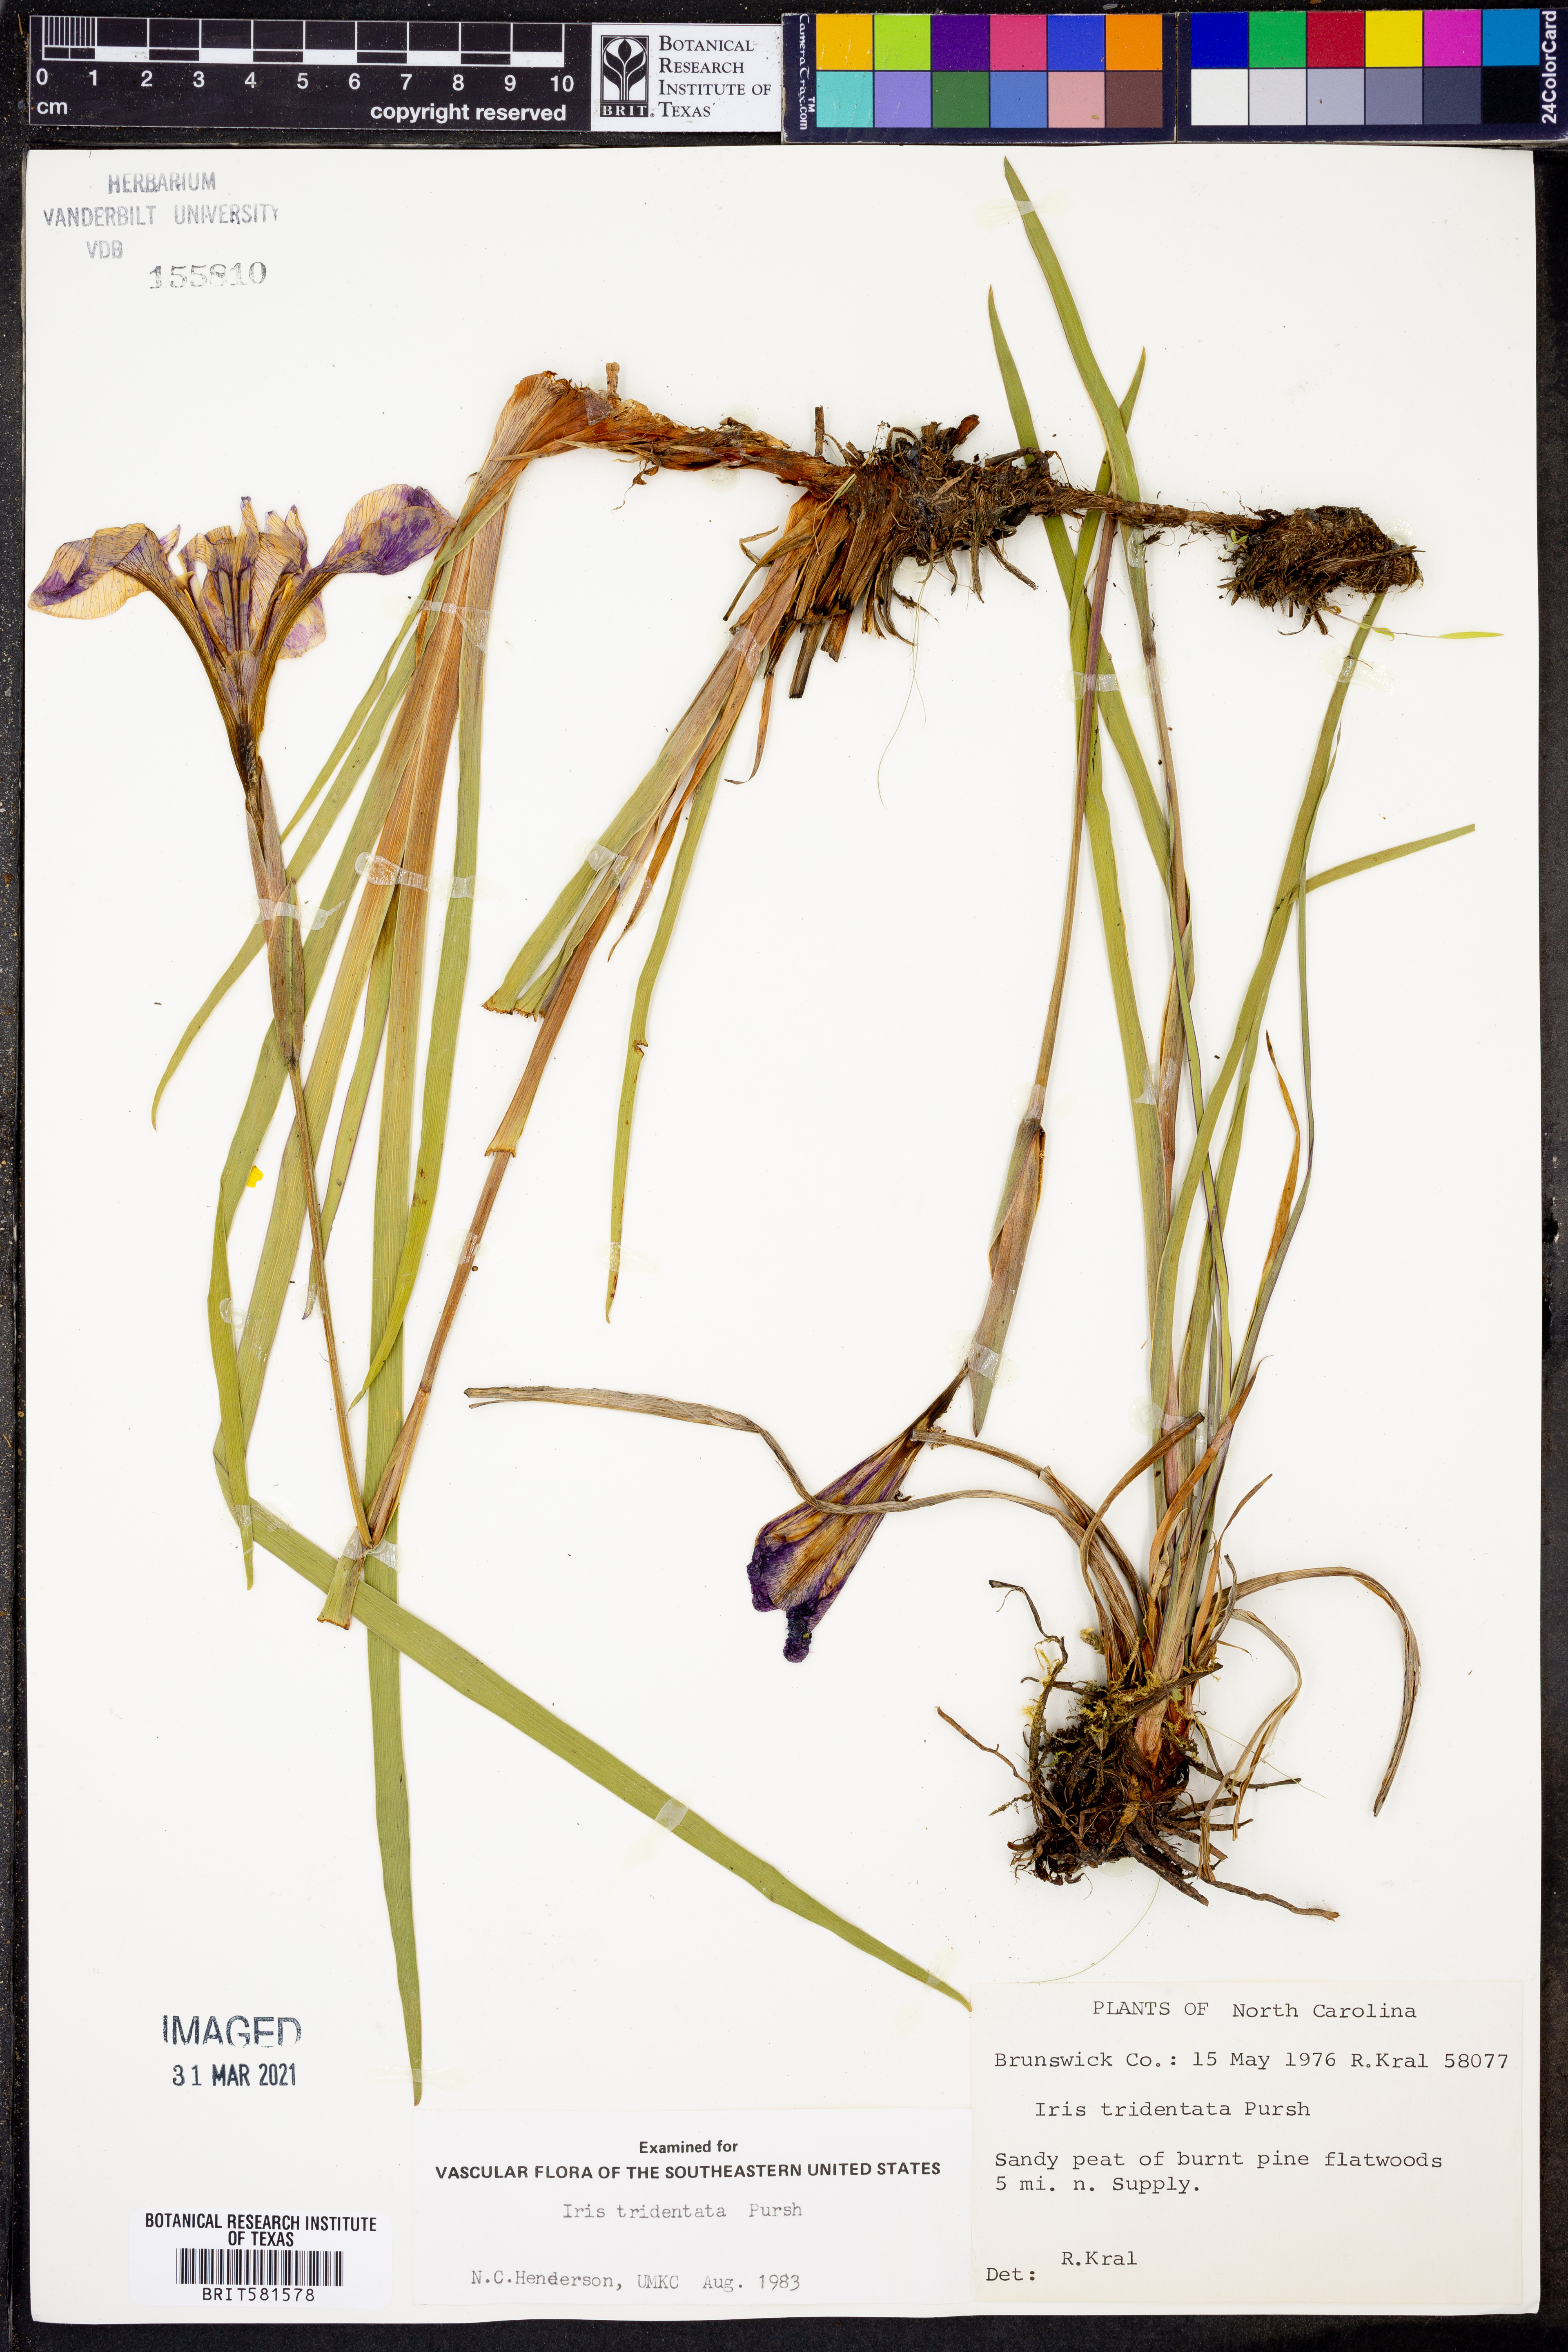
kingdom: Plantae
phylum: Tracheophyta
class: Liliopsida
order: Asparagales
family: Iridaceae
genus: Iris
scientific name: Iris tridentata
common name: Savannah iris
